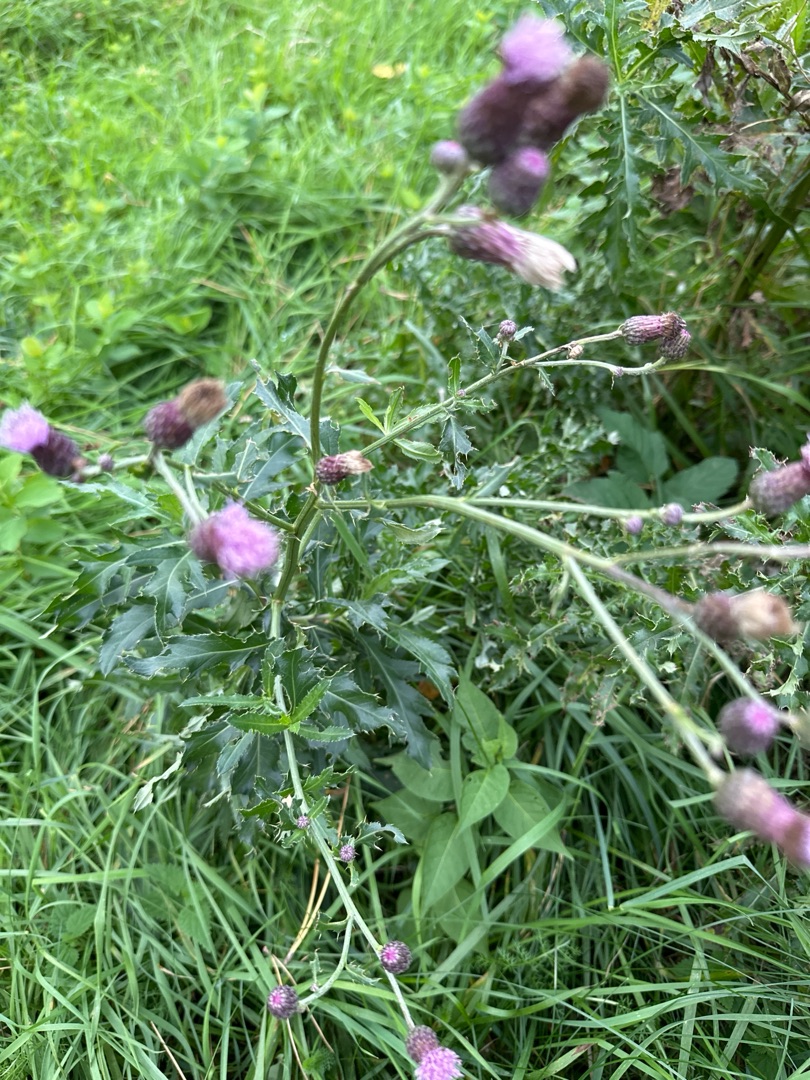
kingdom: Plantae
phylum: Tracheophyta
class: Magnoliopsida
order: Asterales
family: Asteraceae
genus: Cirsium
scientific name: Cirsium arvense
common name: Ager-tidsel
